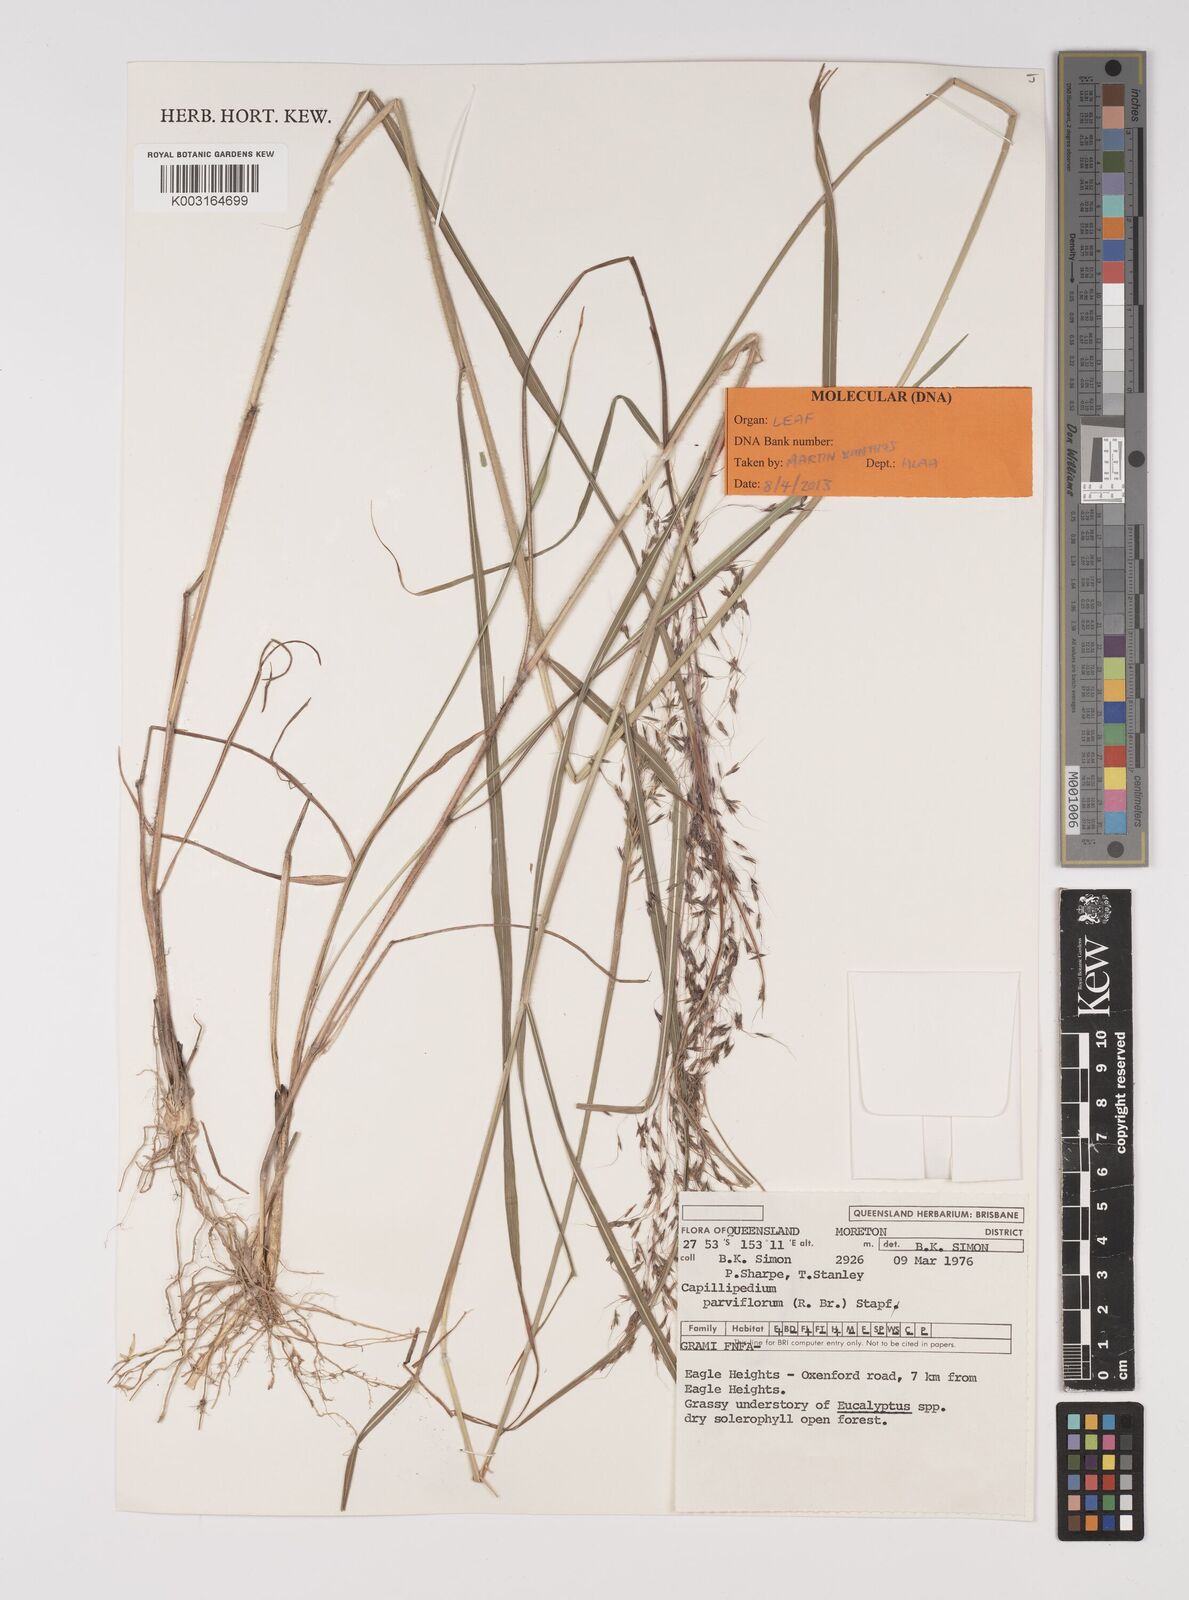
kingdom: Plantae
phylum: Tracheophyta
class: Liliopsida
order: Poales
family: Poaceae
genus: Capillipedium
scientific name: Capillipedium parviflorum
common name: Golden-beard
